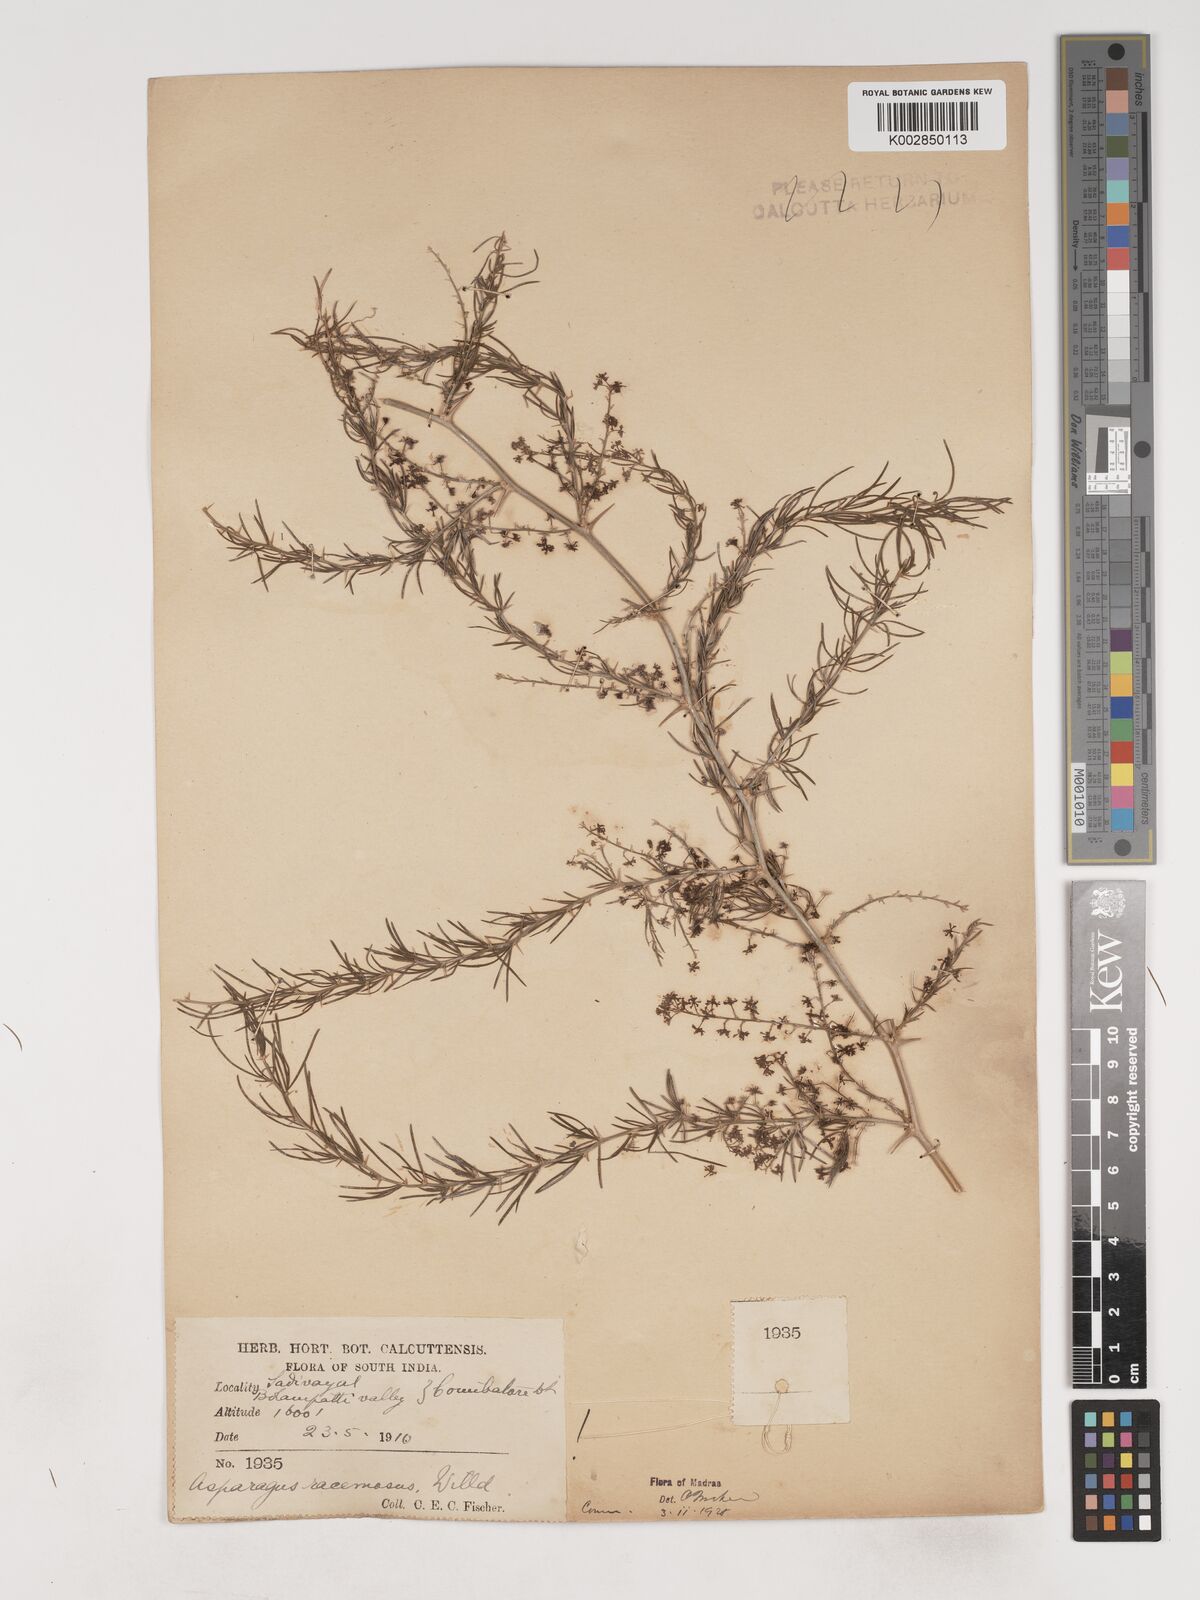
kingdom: Plantae
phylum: Tracheophyta
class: Liliopsida
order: Asparagales
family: Asparagaceae
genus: Asparagus
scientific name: Asparagus racemosus
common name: Asparagus-fern
